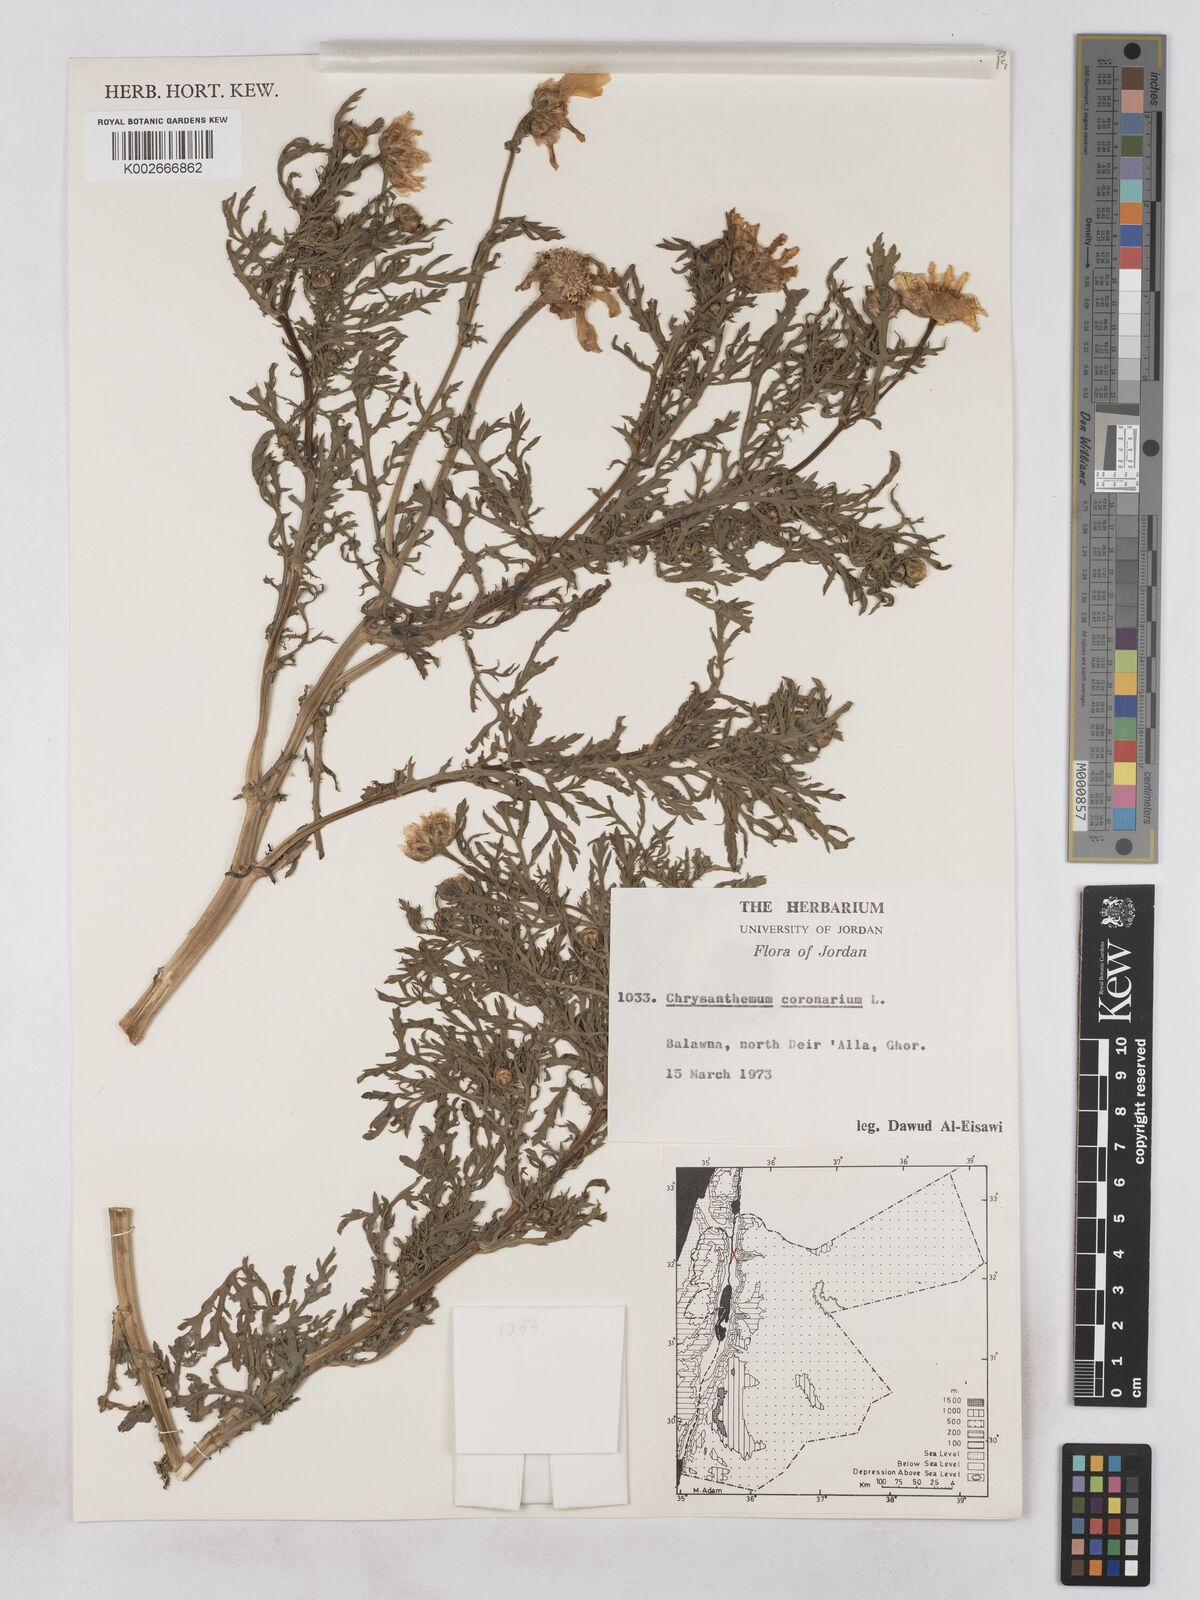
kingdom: Plantae
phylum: Tracheophyta
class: Magnoliopsida
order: Asterales
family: Asteraceae
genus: Glebionis
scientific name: Glebionis coronaria
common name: Crowndaisy
